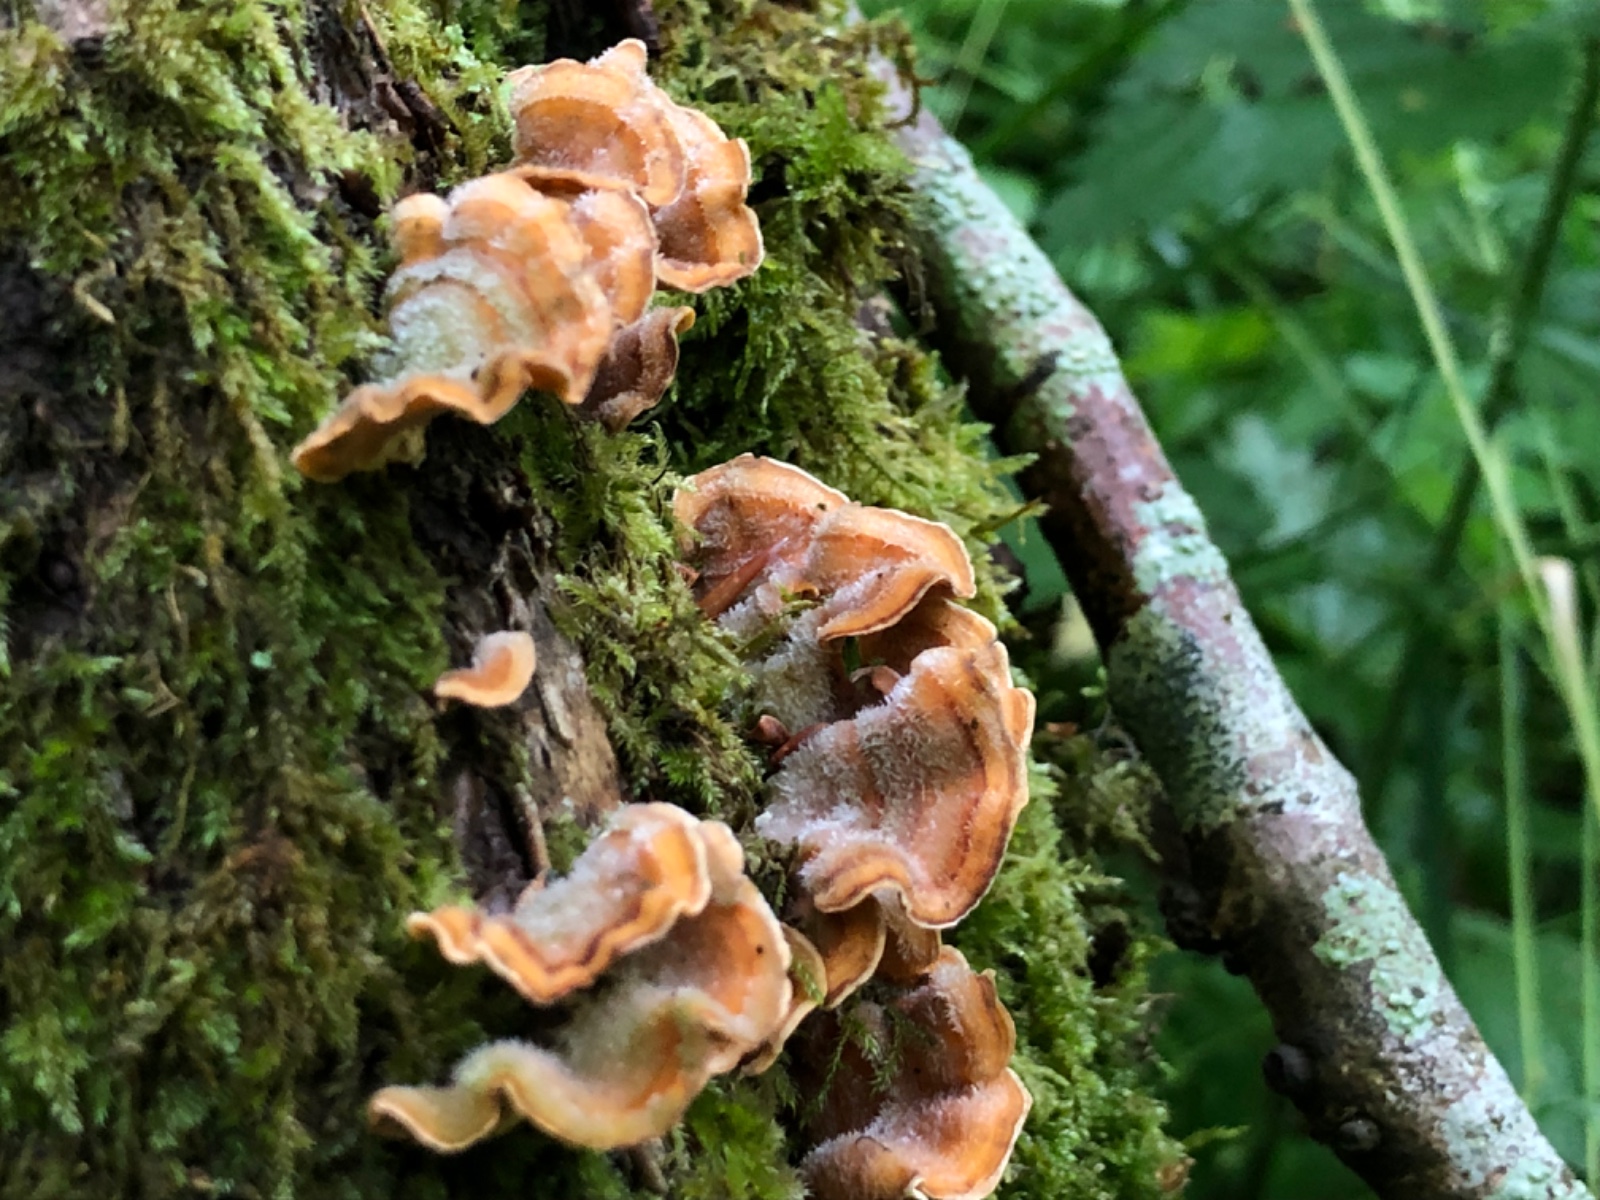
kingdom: Fungi
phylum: Basidiomycota
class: Agaricomycetes
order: Russulales
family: Stereaceae
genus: Stereum
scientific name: Stereum hirsutum
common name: håret lædersvamp
